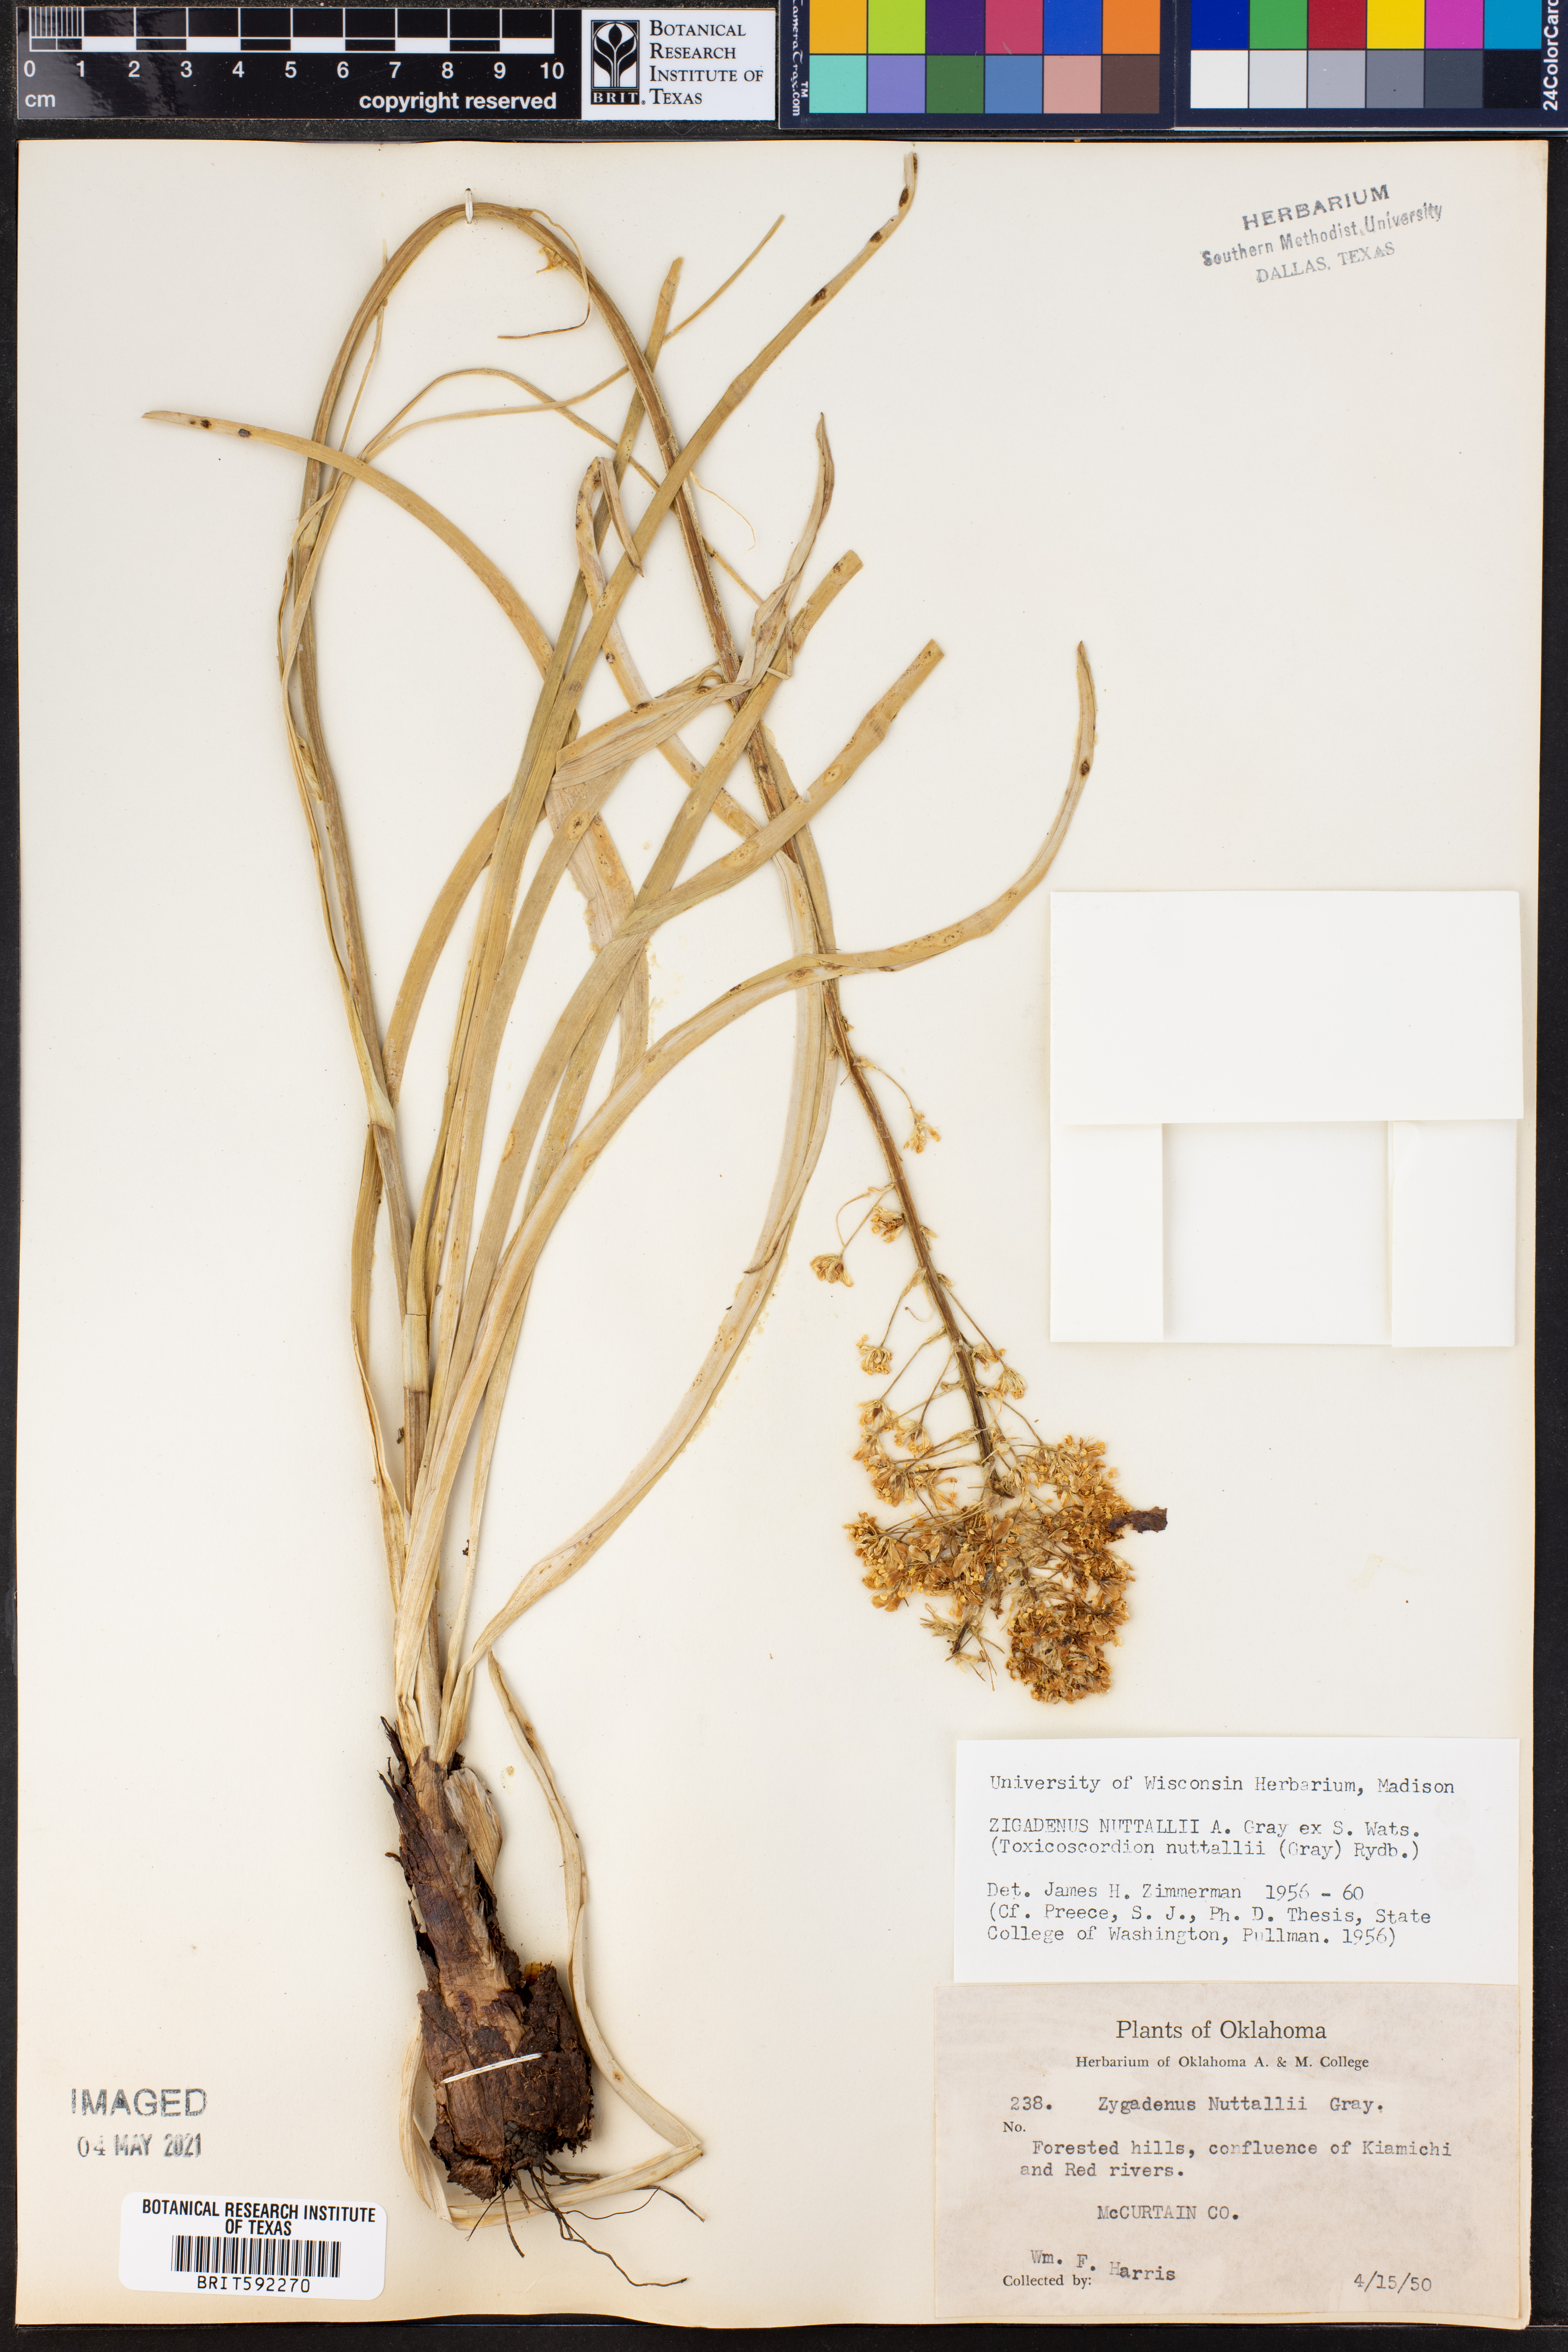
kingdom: Plantae
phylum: Tracheophyta
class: Liliopsida
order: Liliales
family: Melanthiaceae
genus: Toxicoscordion
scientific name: Toxicoscordion nuttallii
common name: Poison sego
